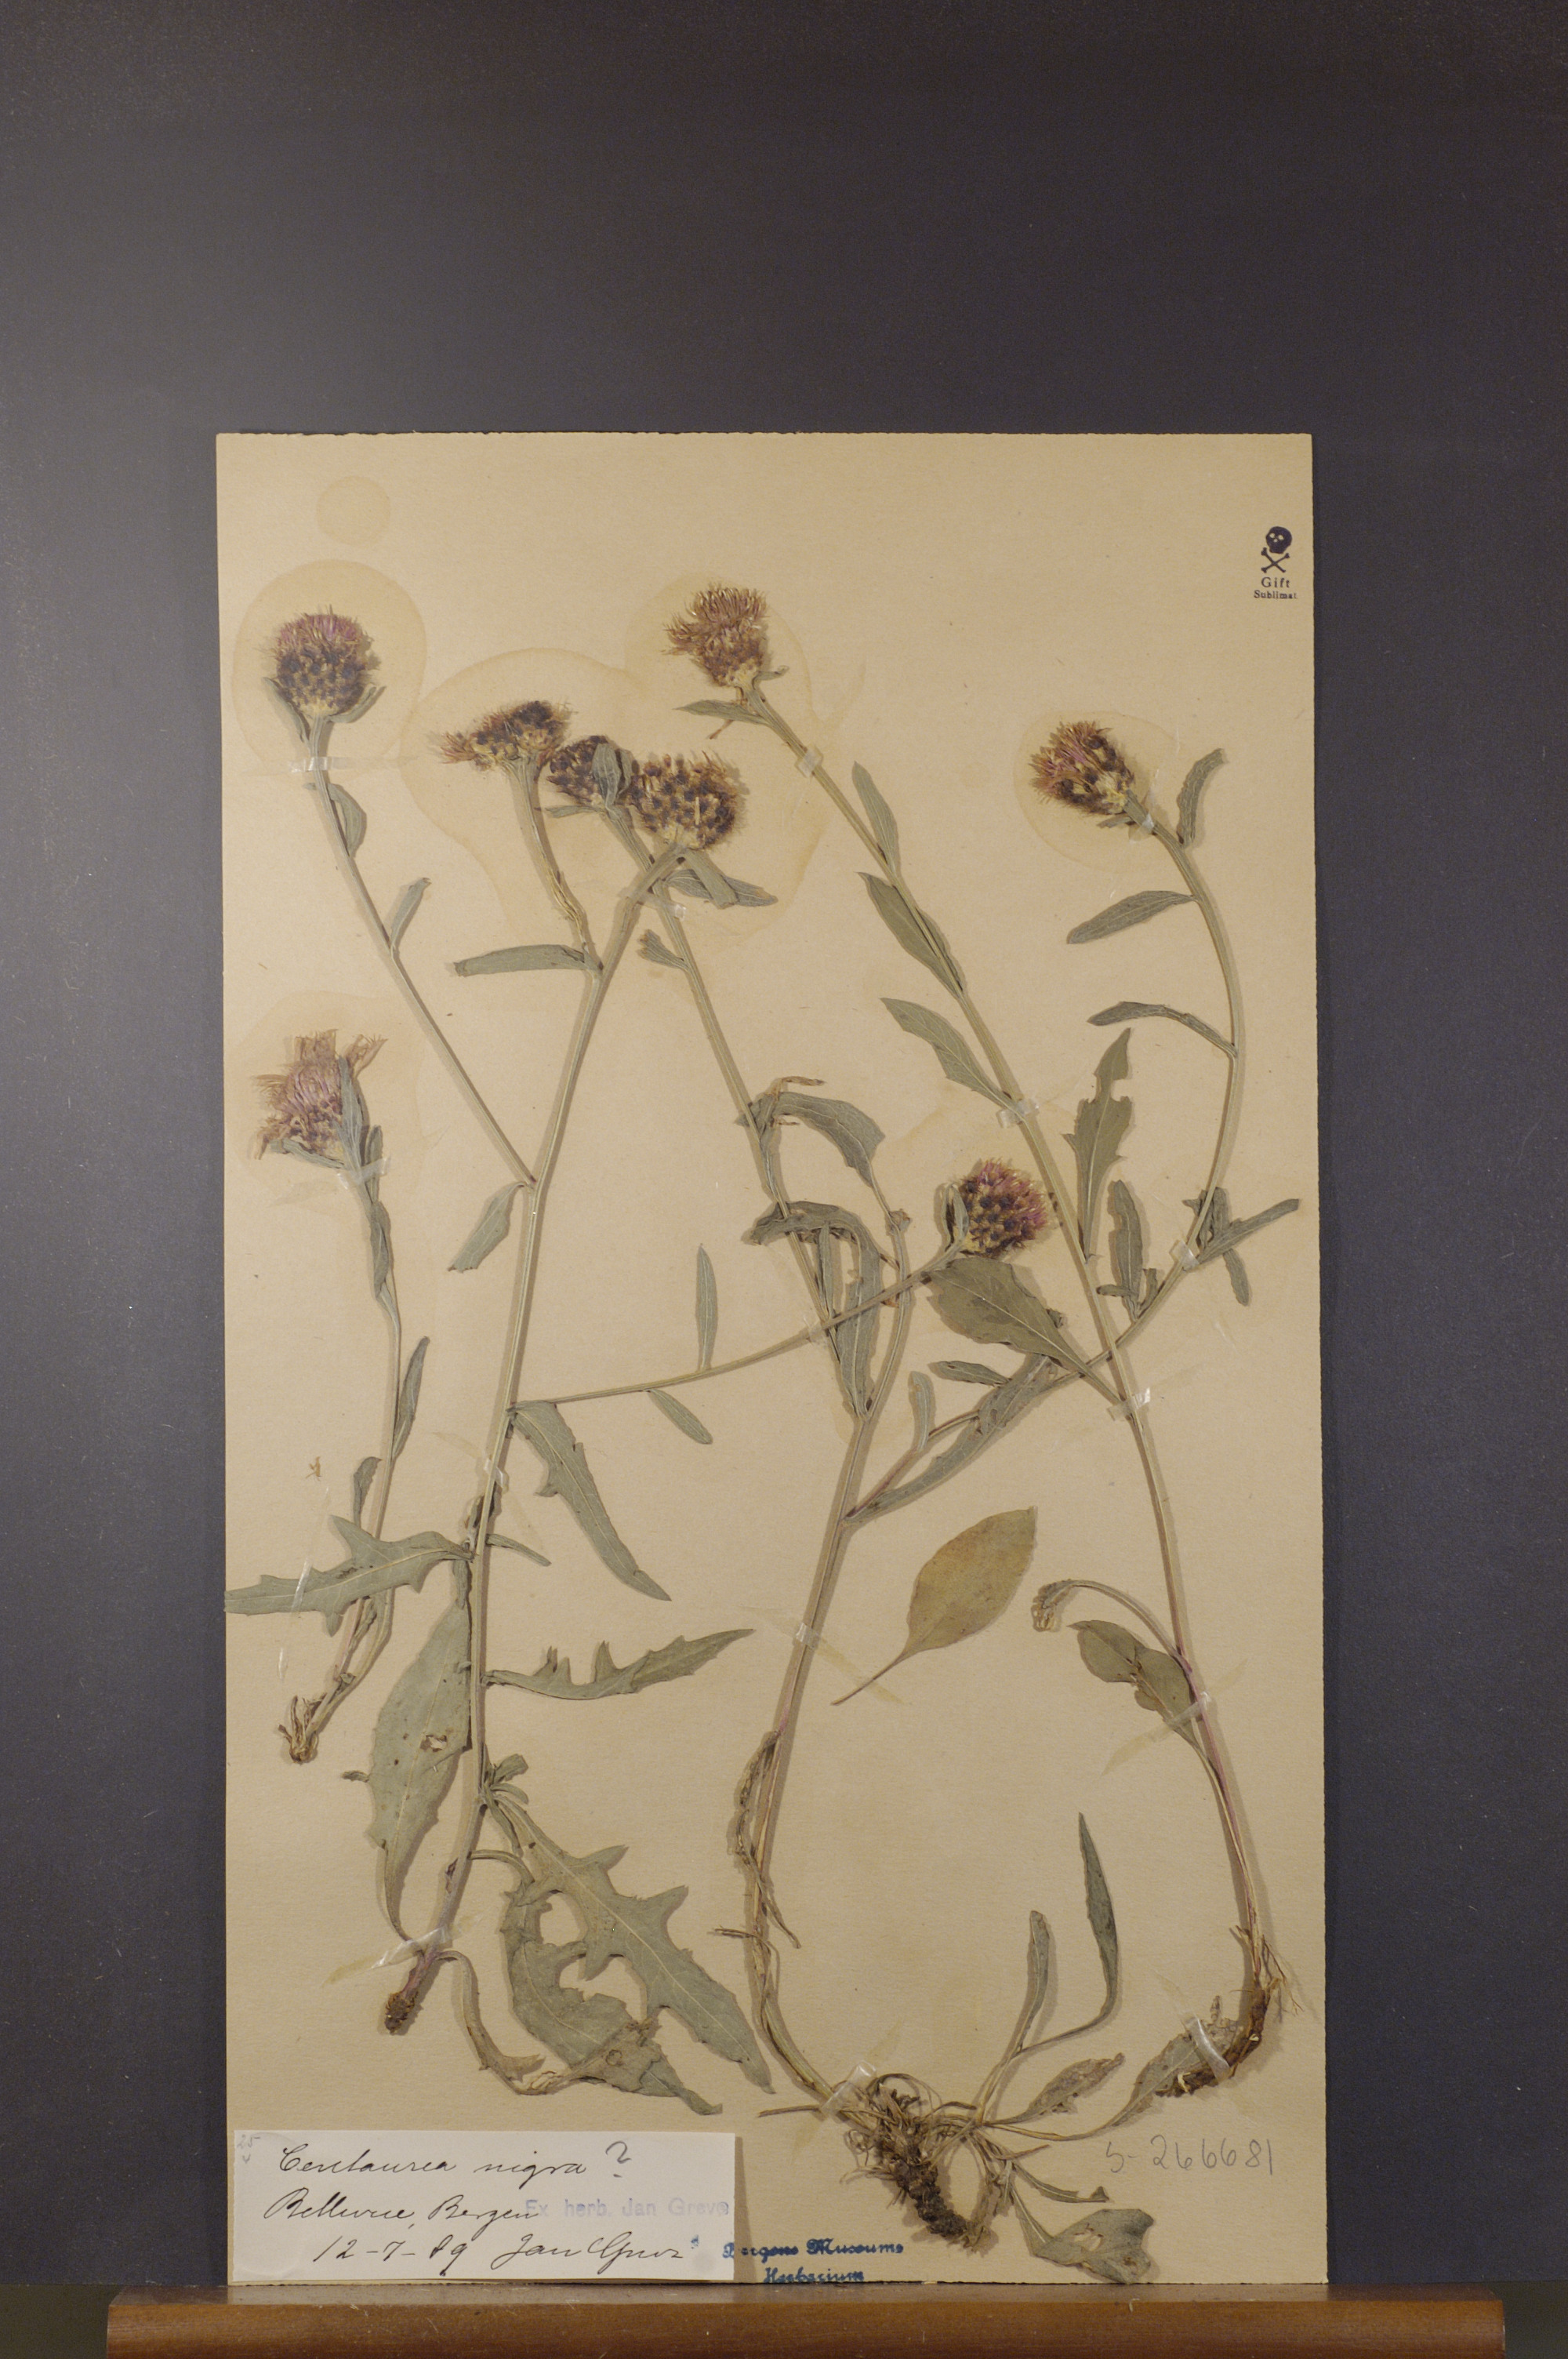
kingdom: Plantae
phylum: Tracheophyta
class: Magnoliopsida
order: Asterales
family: Asteraceae
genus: Centaurea
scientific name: Centaurea nigra
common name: Lesser knapweed
